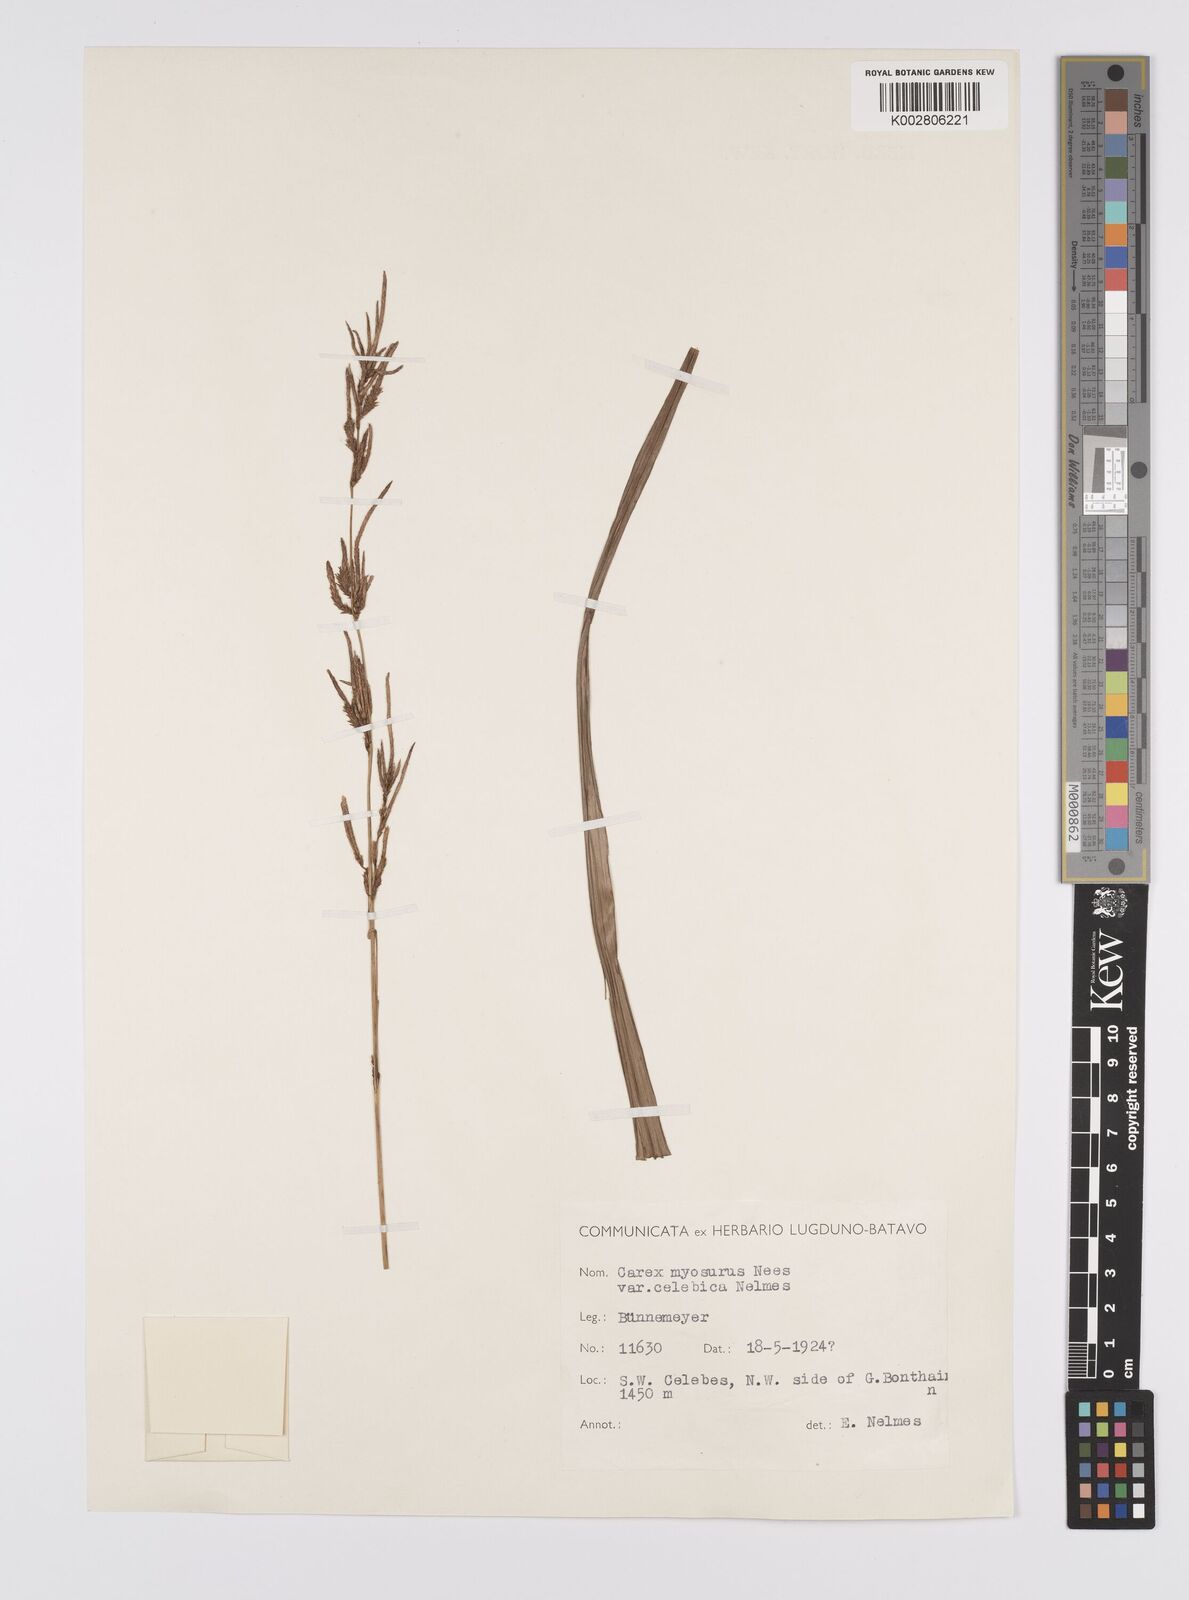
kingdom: Plantae
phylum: Tracheophyta
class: Liliopsida
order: Poales
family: Cyperaceae
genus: Carex
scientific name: Carex myosurus
